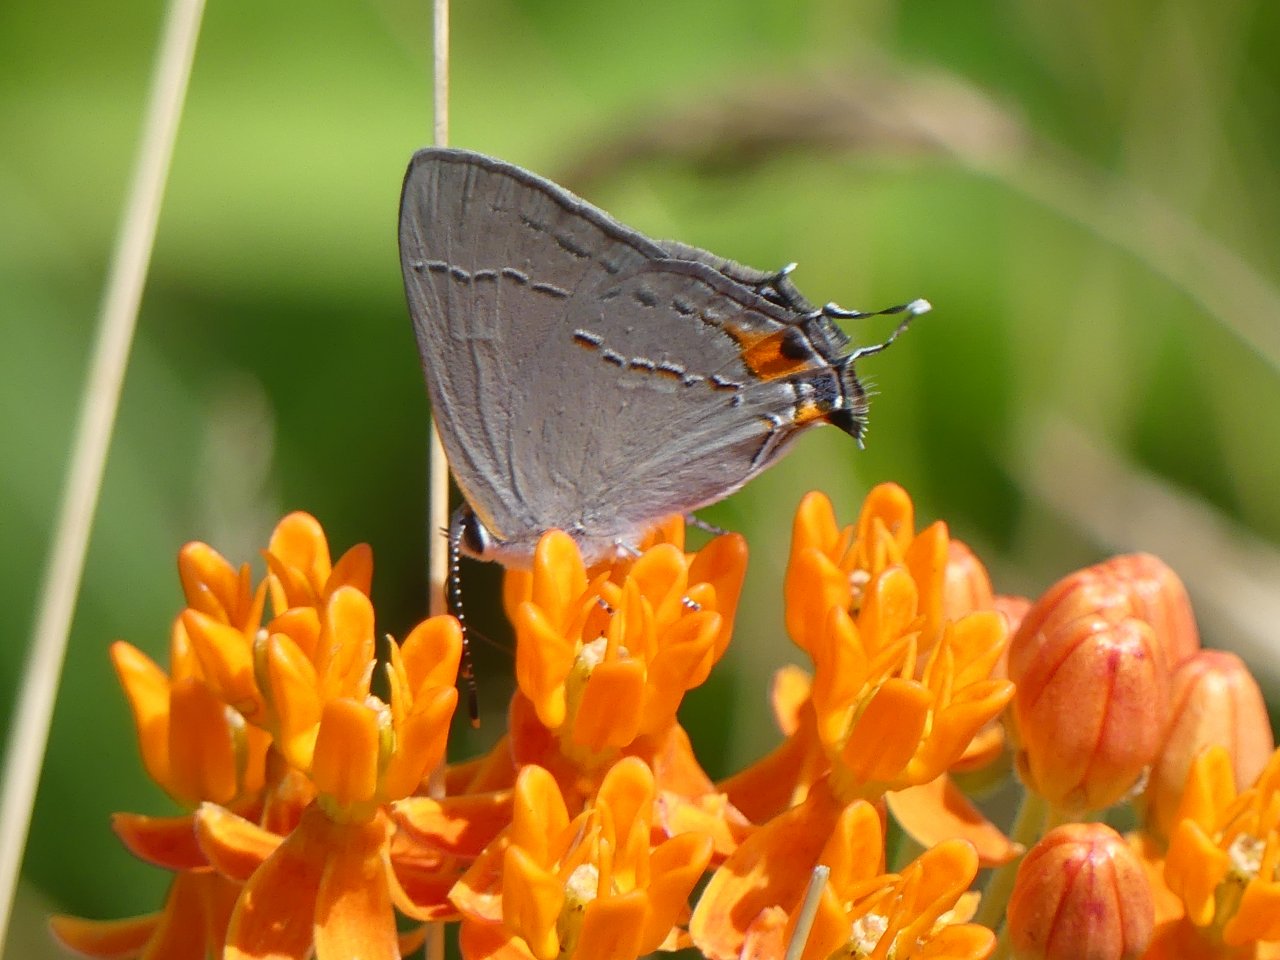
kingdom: Animalia
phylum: Arthropoda
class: Insecta
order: Lepidoptera
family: Lycaenidae
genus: Strymon
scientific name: Strymon melinus
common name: Gray Hairstreak
